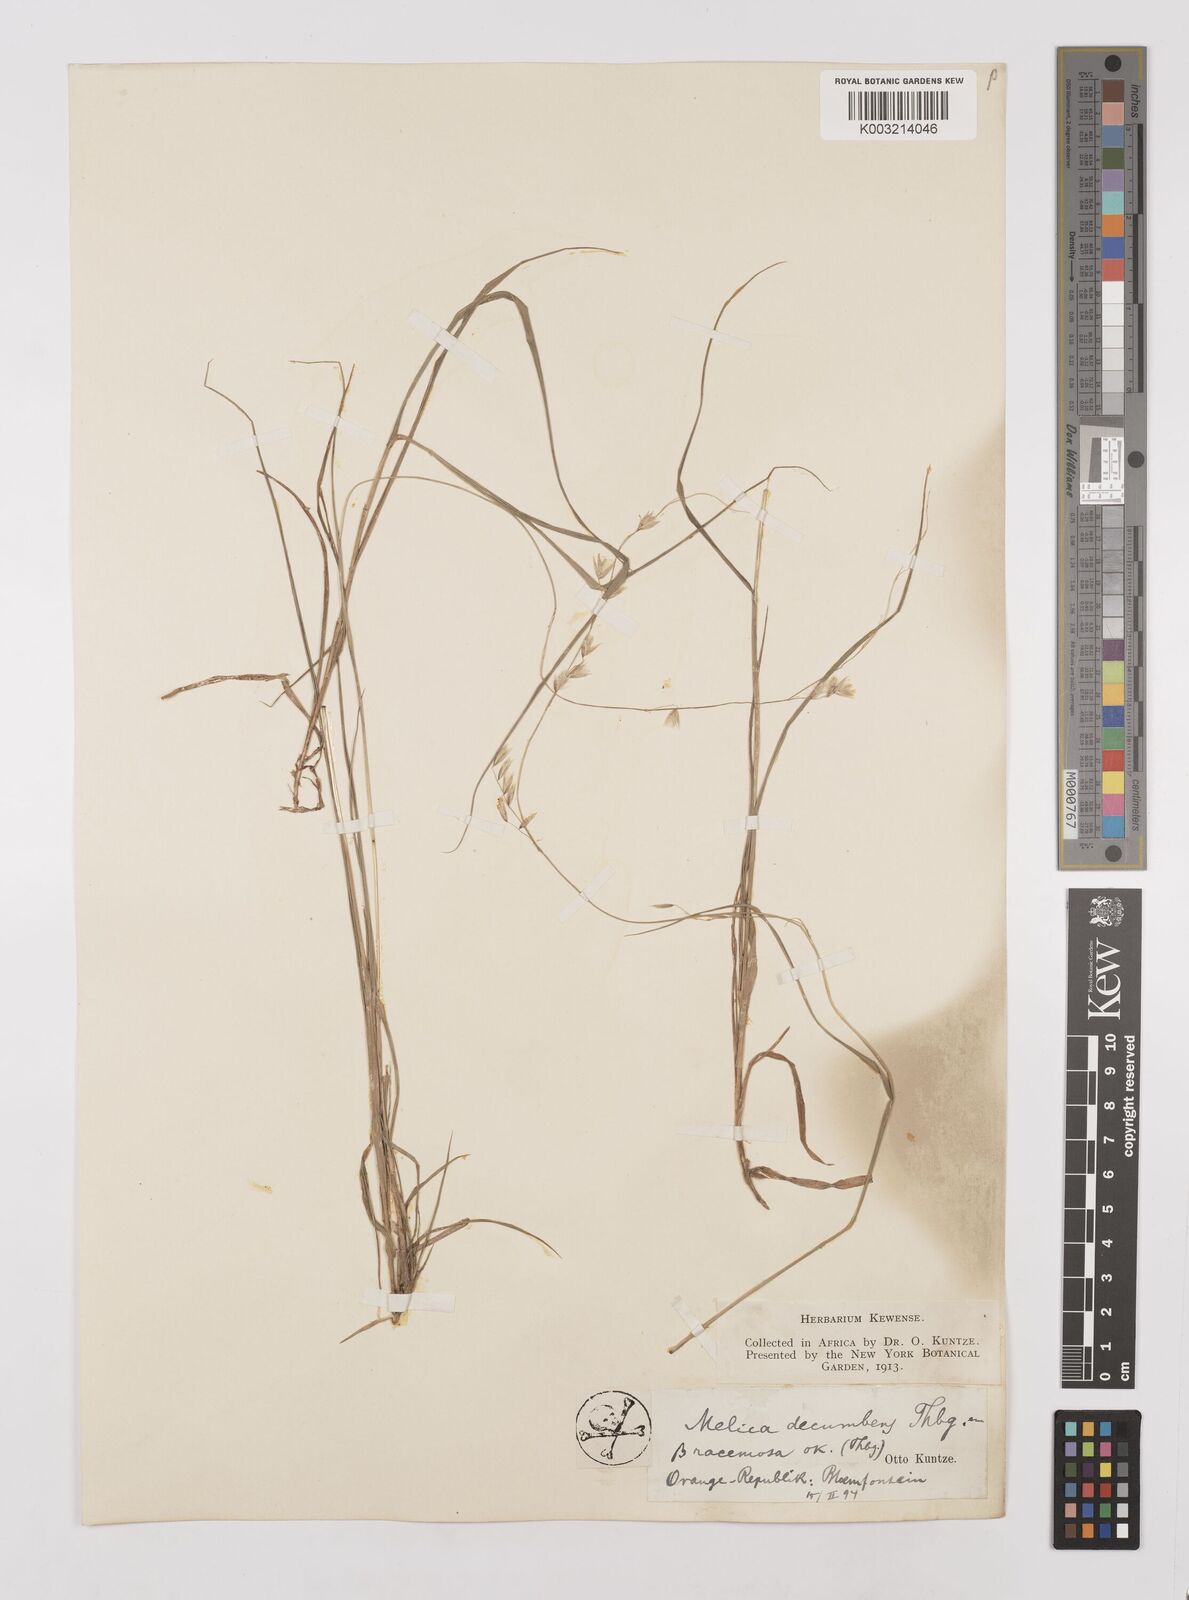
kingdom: Plantae
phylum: Tracheophyta
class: Liliopsida
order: Poales
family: Poaceae
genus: Melica
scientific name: Melica dendroides
